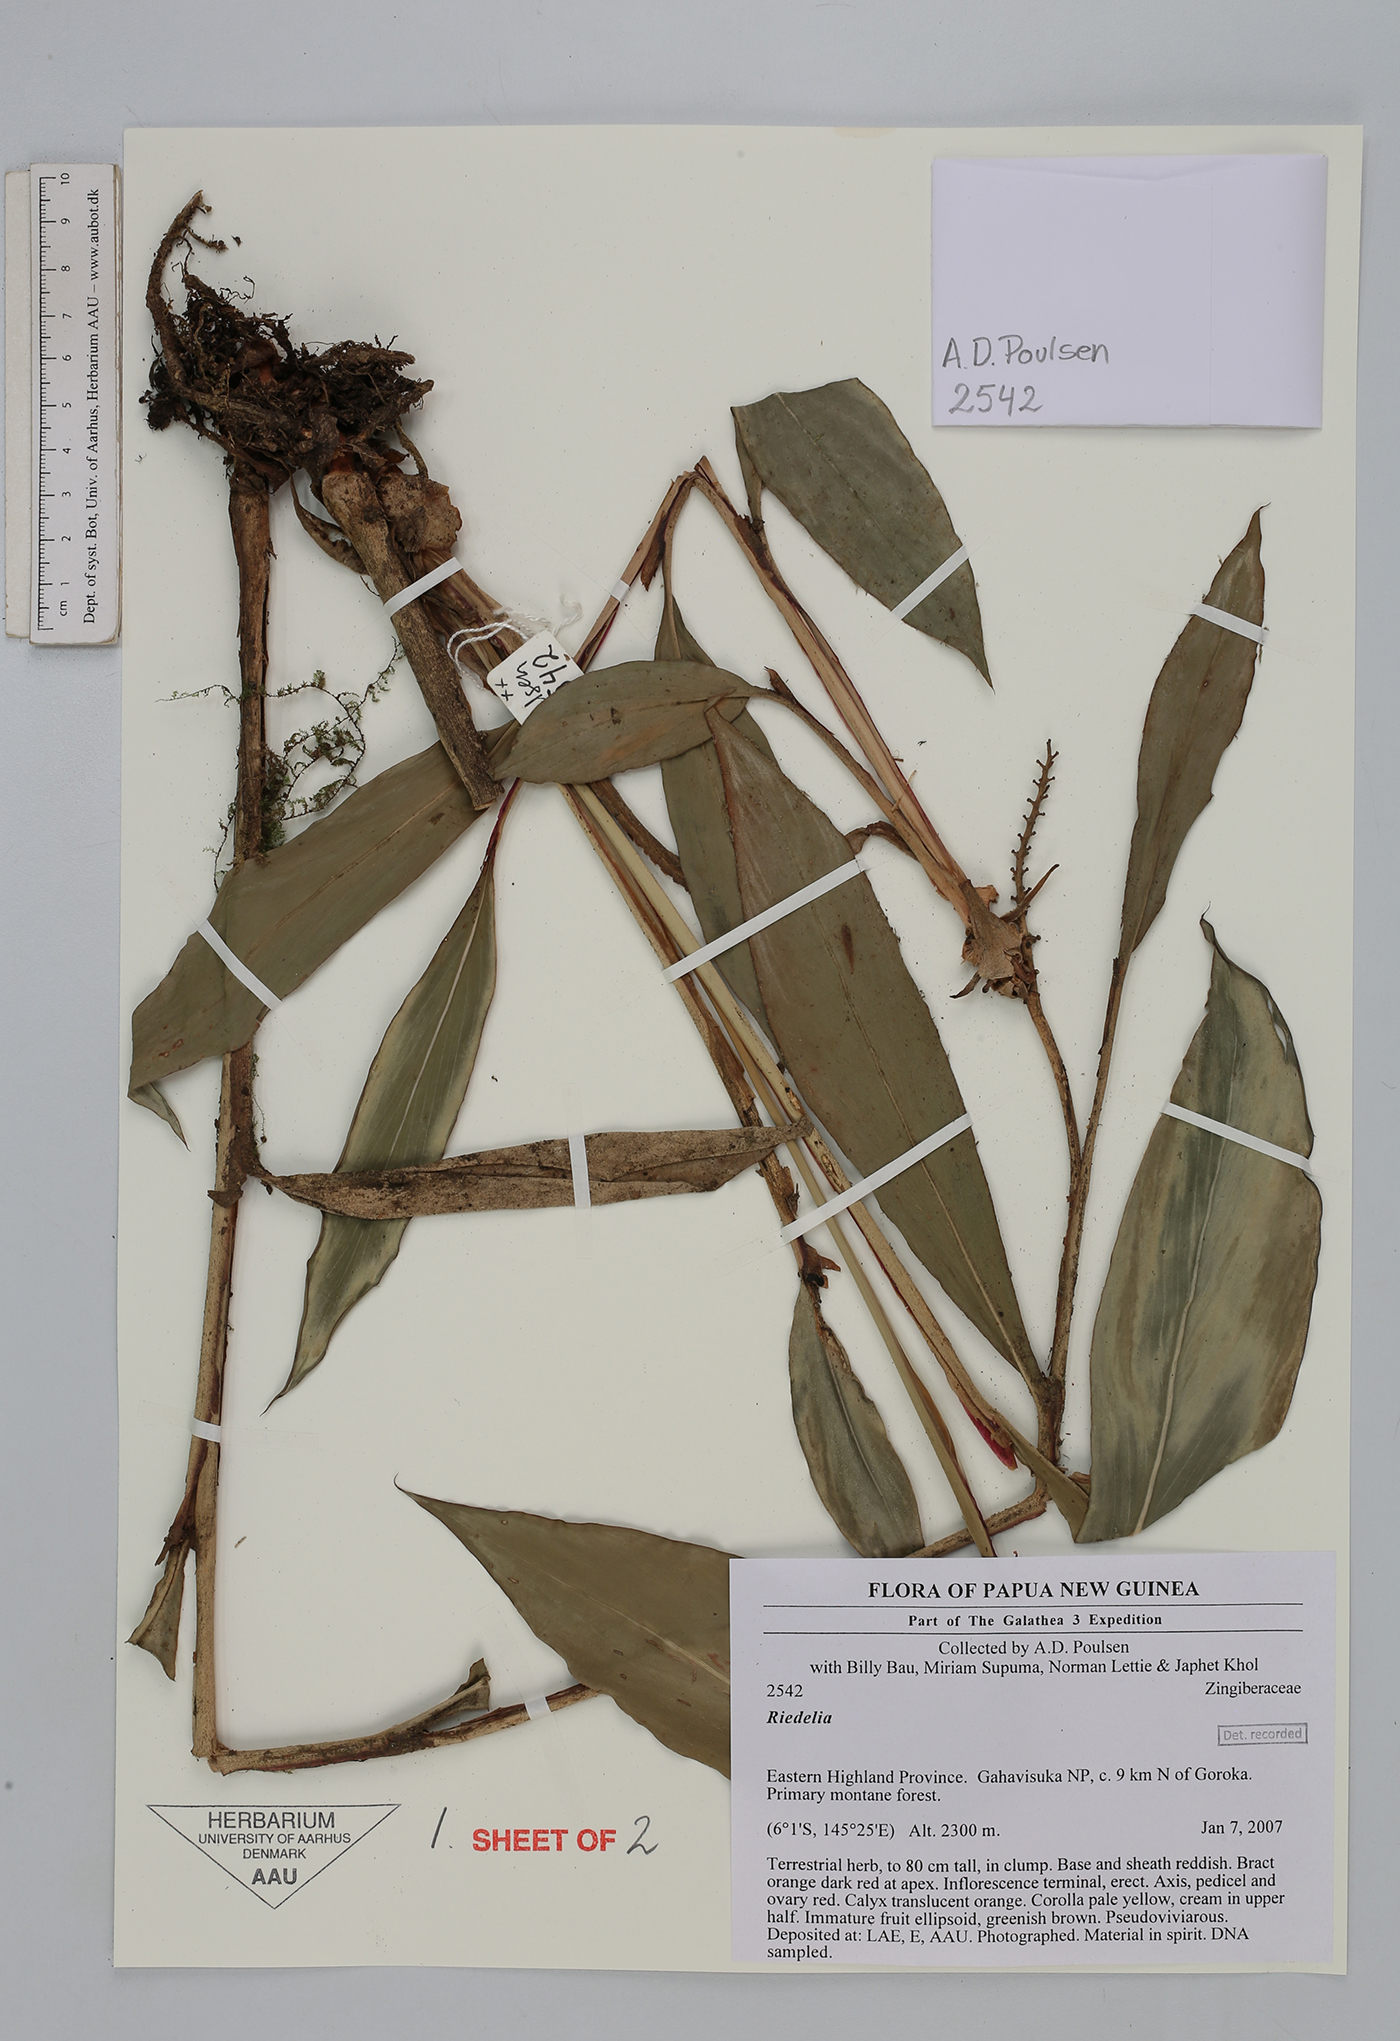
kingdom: Plantae
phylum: Tracheophyta
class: Liliopsida
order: Zingiberales
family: Zingiberaceae
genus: Riedelia
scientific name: Riedelia
